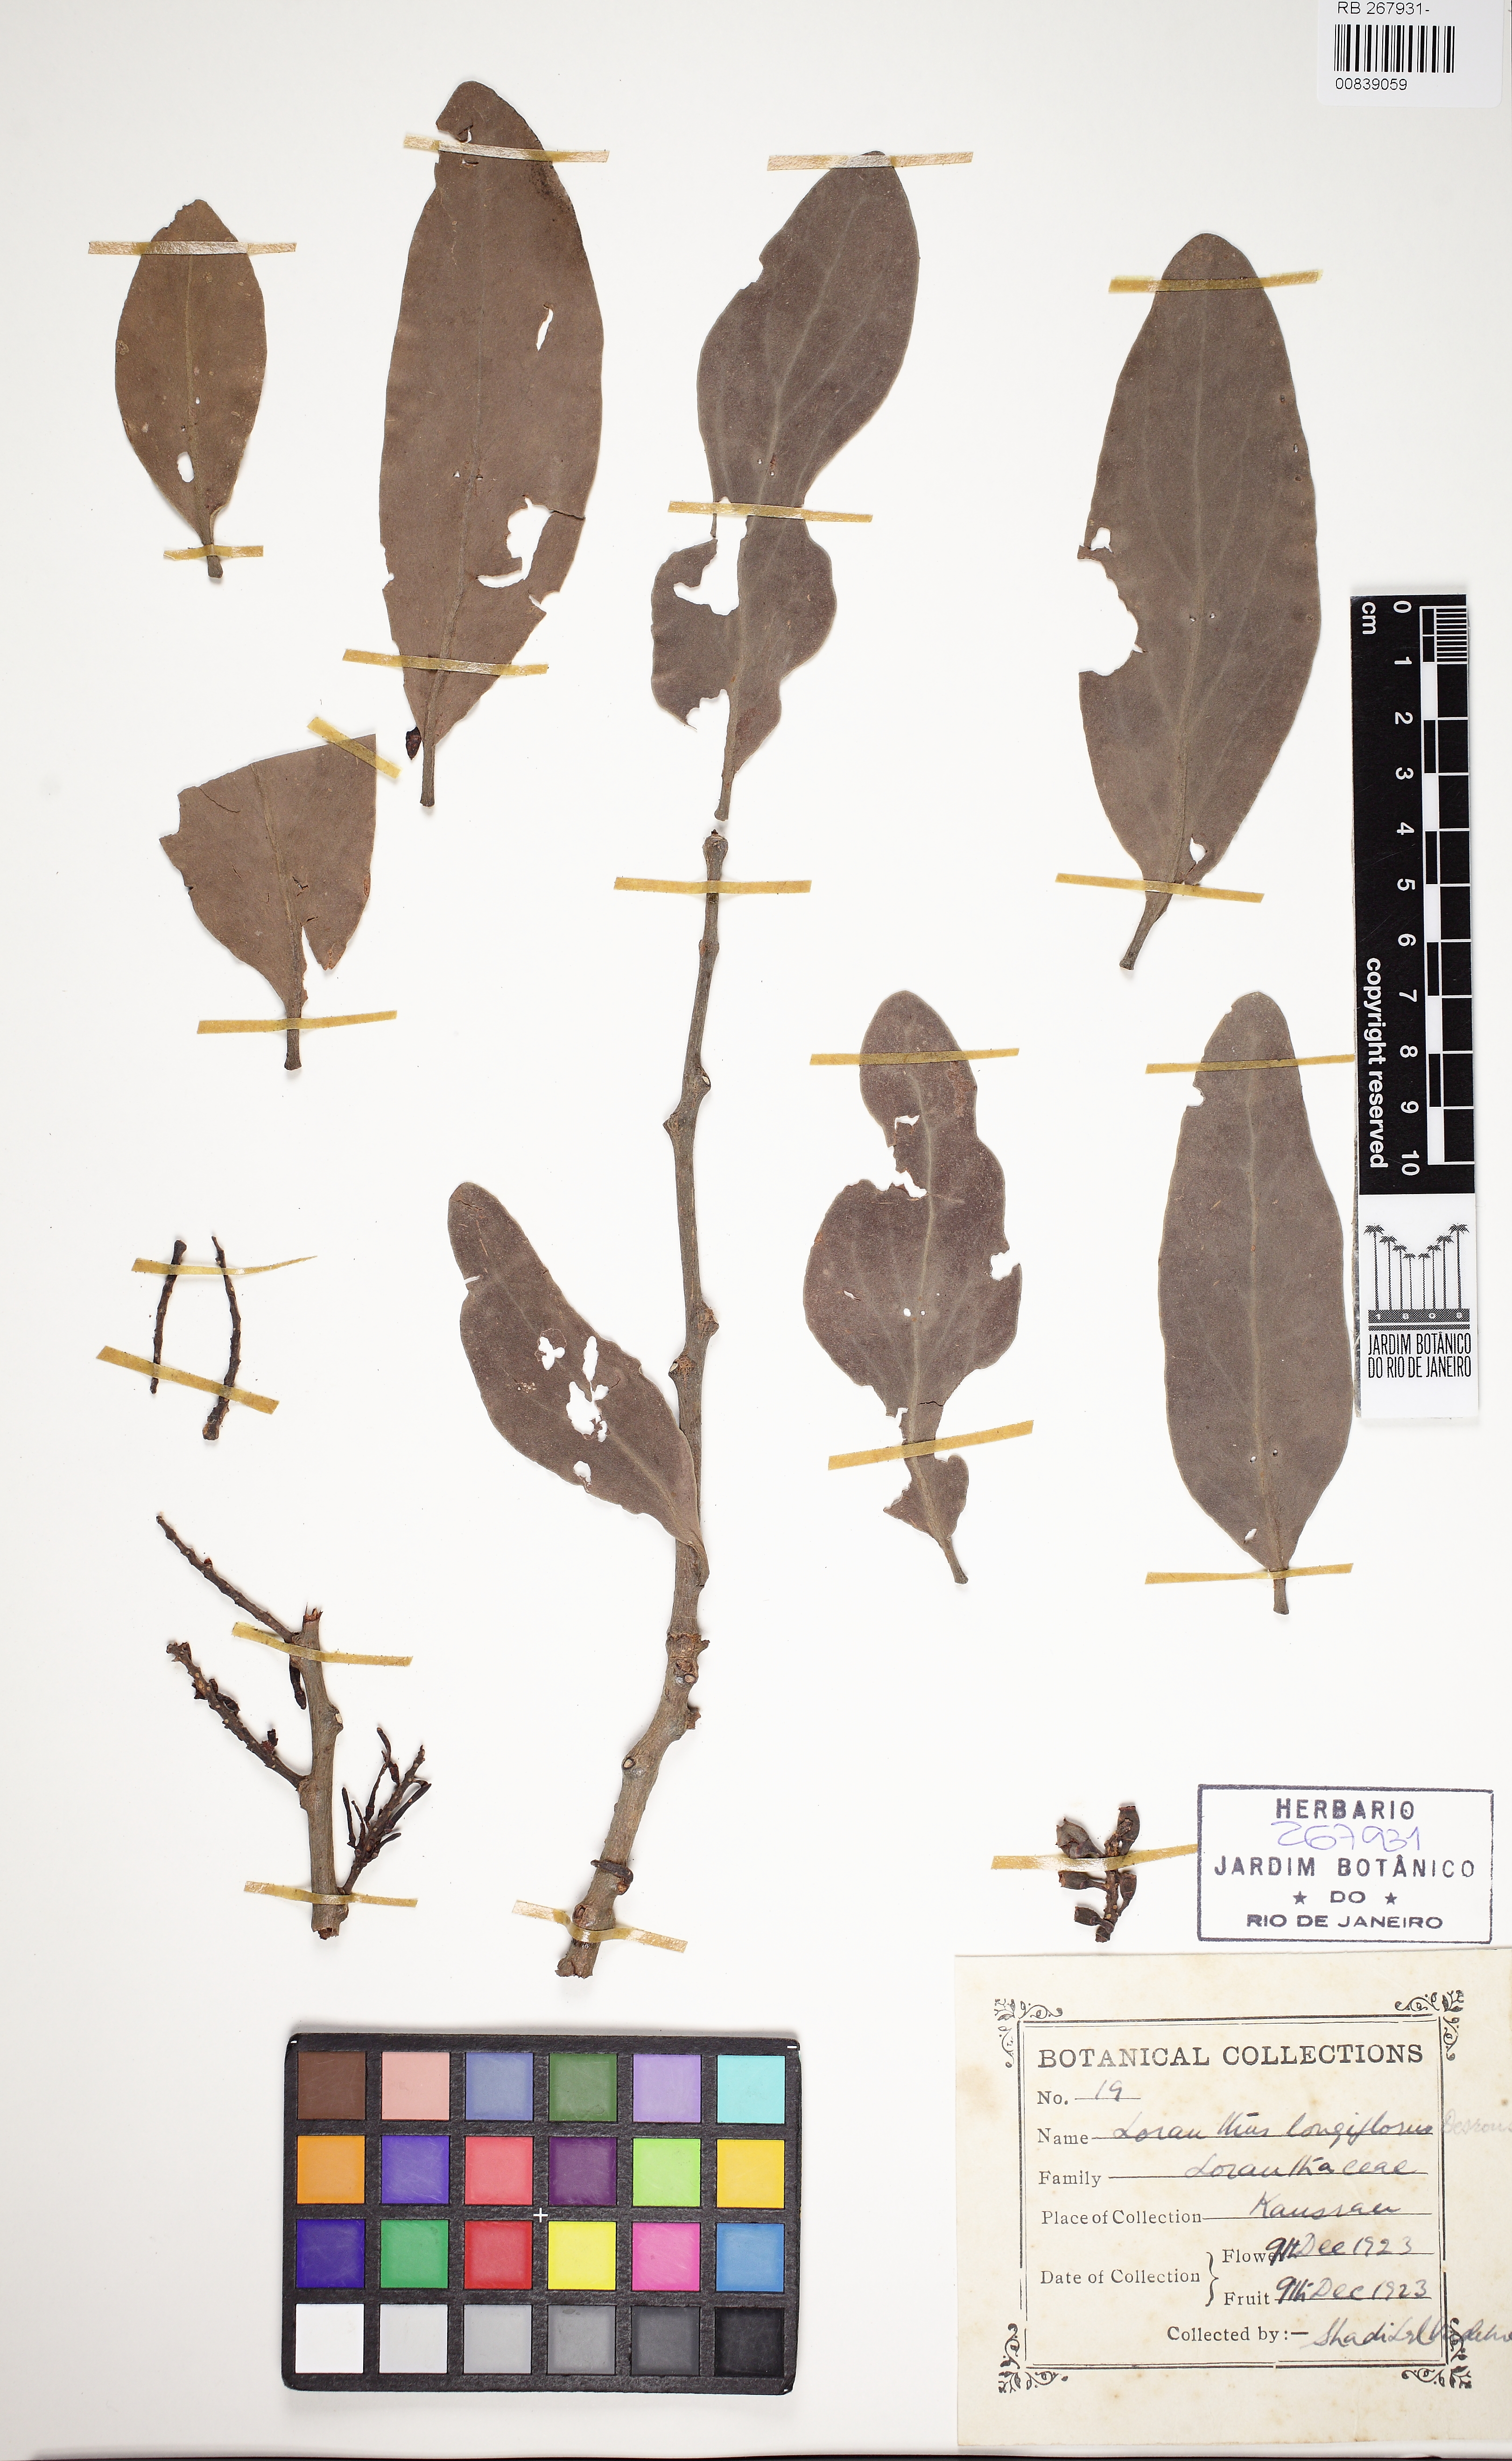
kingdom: Plantae
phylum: Tracheophyta
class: Magnoliopsida
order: Santalales
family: Loranthaceae
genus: Dendrophthoe
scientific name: Dendrophthoe longiflora
